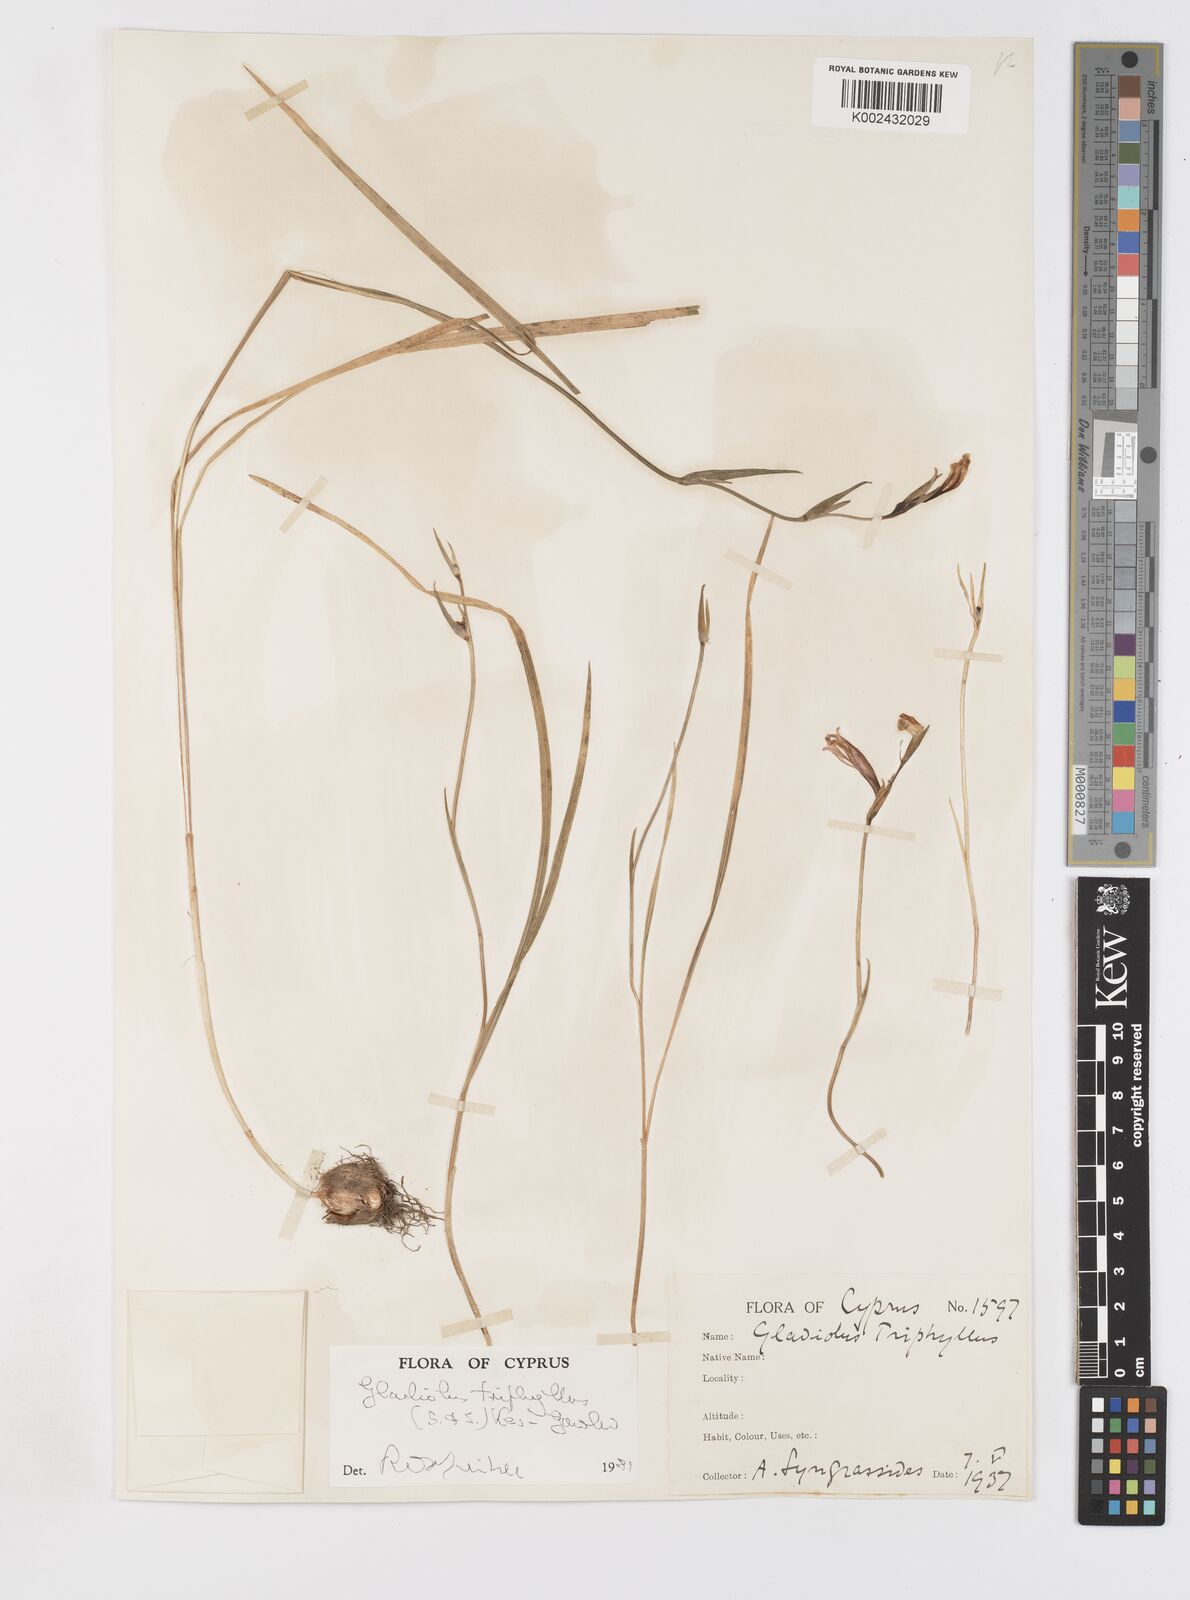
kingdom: Plantae
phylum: Tracheophyta
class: Liliopsida
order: Asparagales
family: Iridaceae
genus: Gladiolus
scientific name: Gladiolus triphyllus
